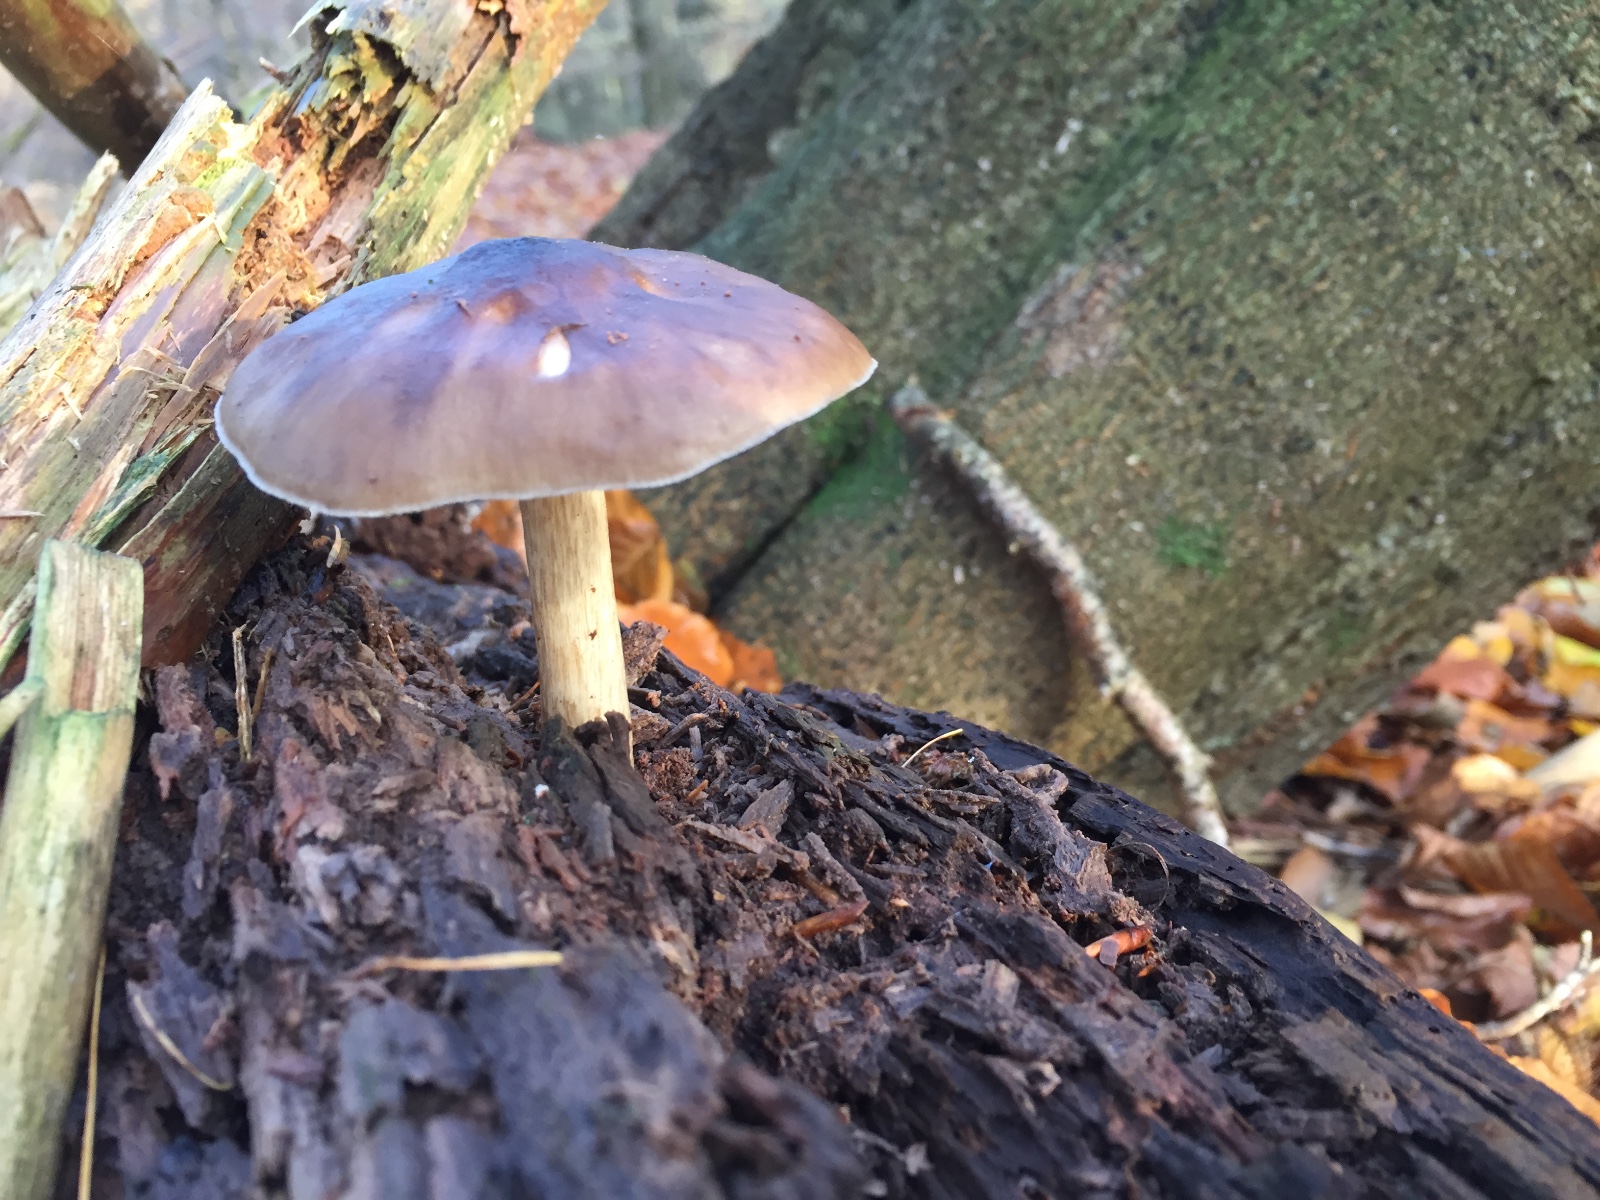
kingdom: Fungi
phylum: Basidiomycota
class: Agaricomycetes
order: Agaricales
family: Pluteaceae
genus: Pluteus
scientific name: Pluteus cervinus
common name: sodfarvet skærmhat
